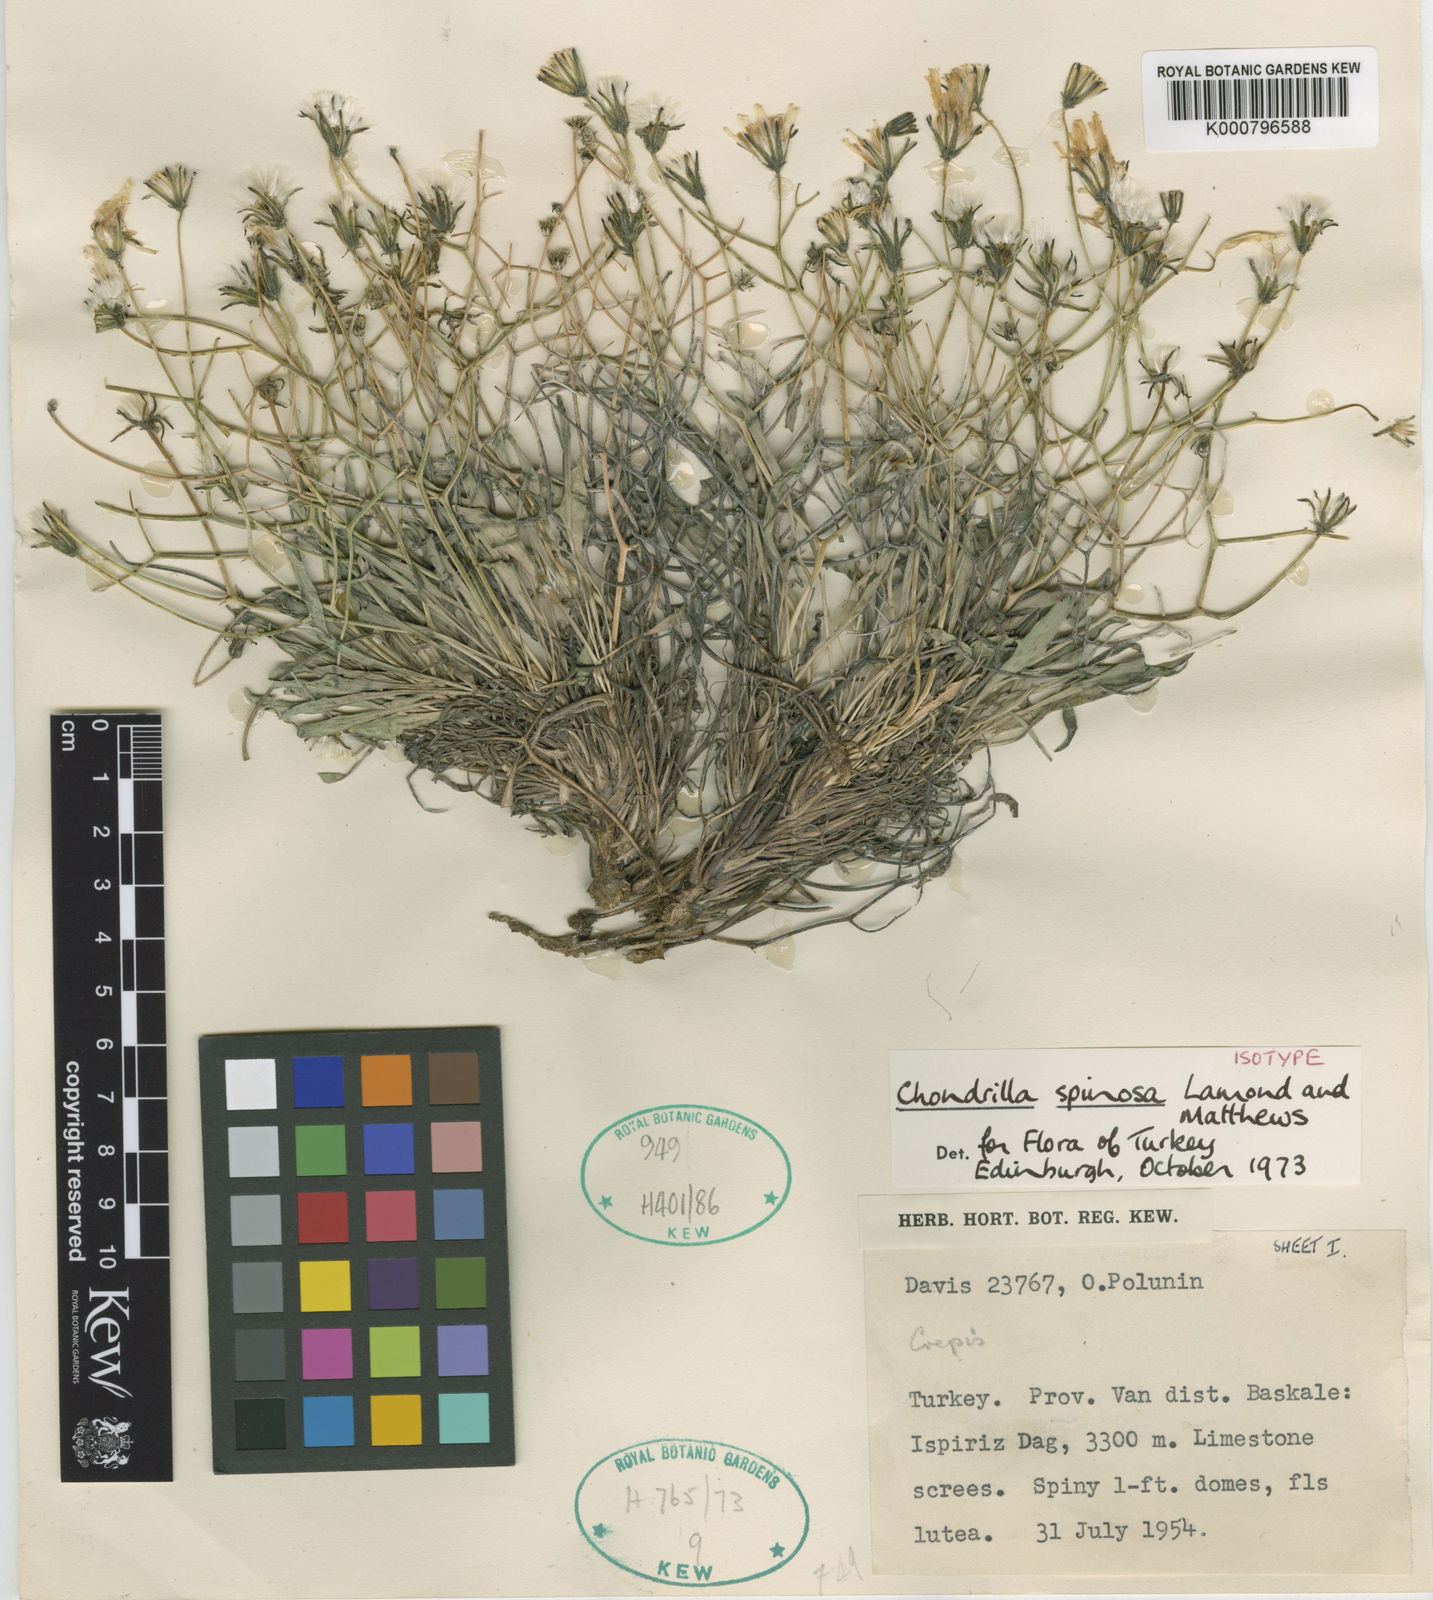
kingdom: Plantae
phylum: Tracheophyta
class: Magnoliopsida
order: Asterales
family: Asteraceae
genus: Chondrilla
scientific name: Chondrilla spinosa
